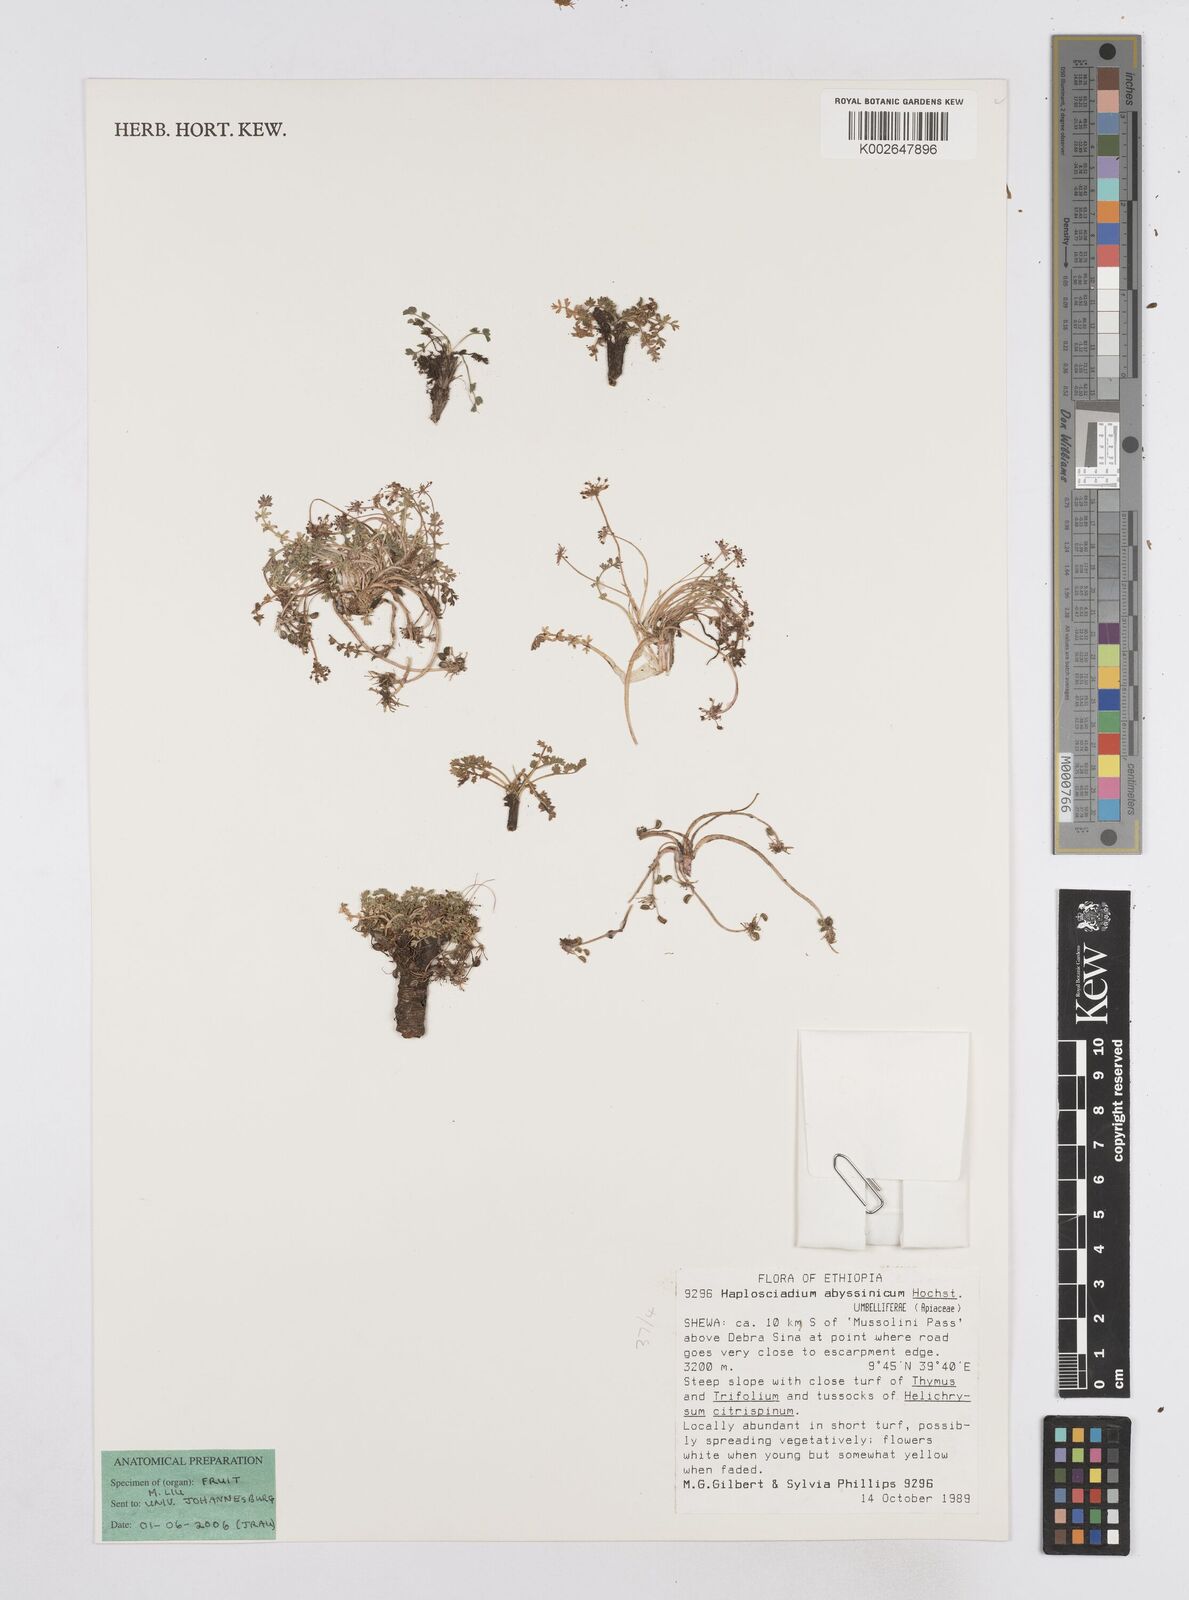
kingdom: Plantae
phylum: Tracheophyta
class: Magnoliopsida
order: Apiales
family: Apiaceae
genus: Haplosciadium
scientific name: Haplosciadium abyssinicum
